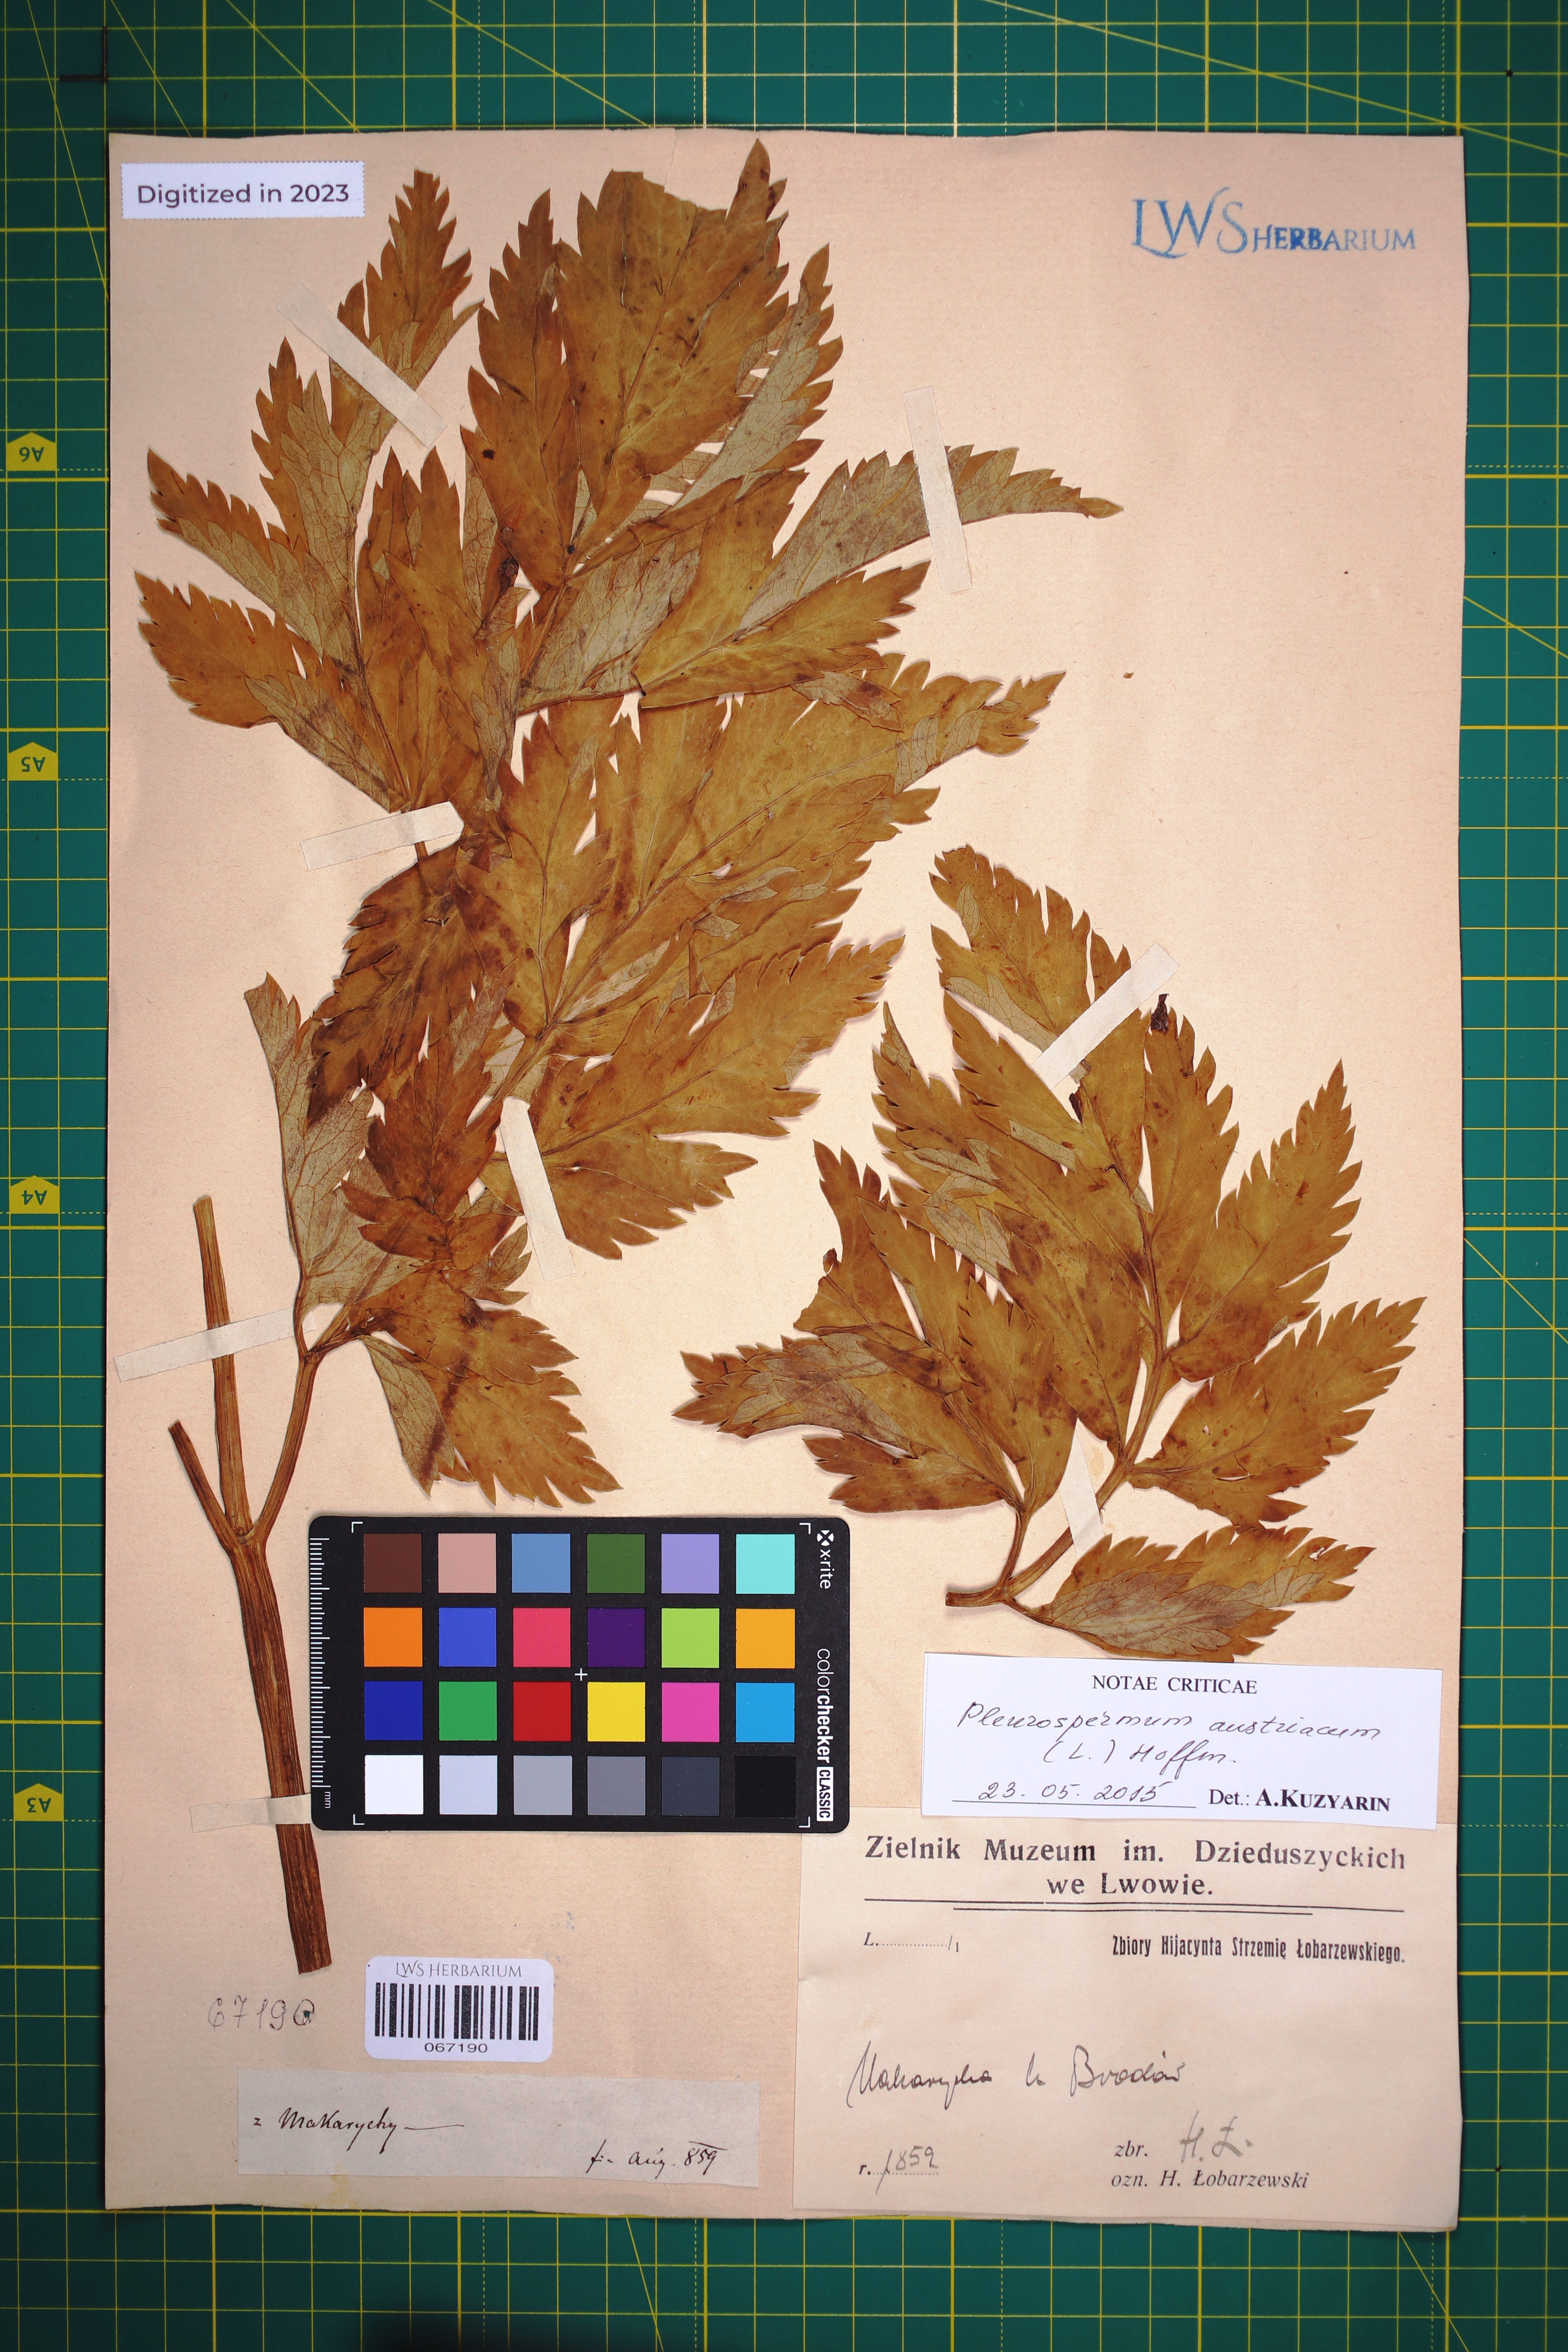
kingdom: Plantae
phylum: Tracheophyta
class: Magnoliopsida
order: Apiales
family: Apiaceae
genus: Pleurospermum
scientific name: Pleurospermum austriacum
